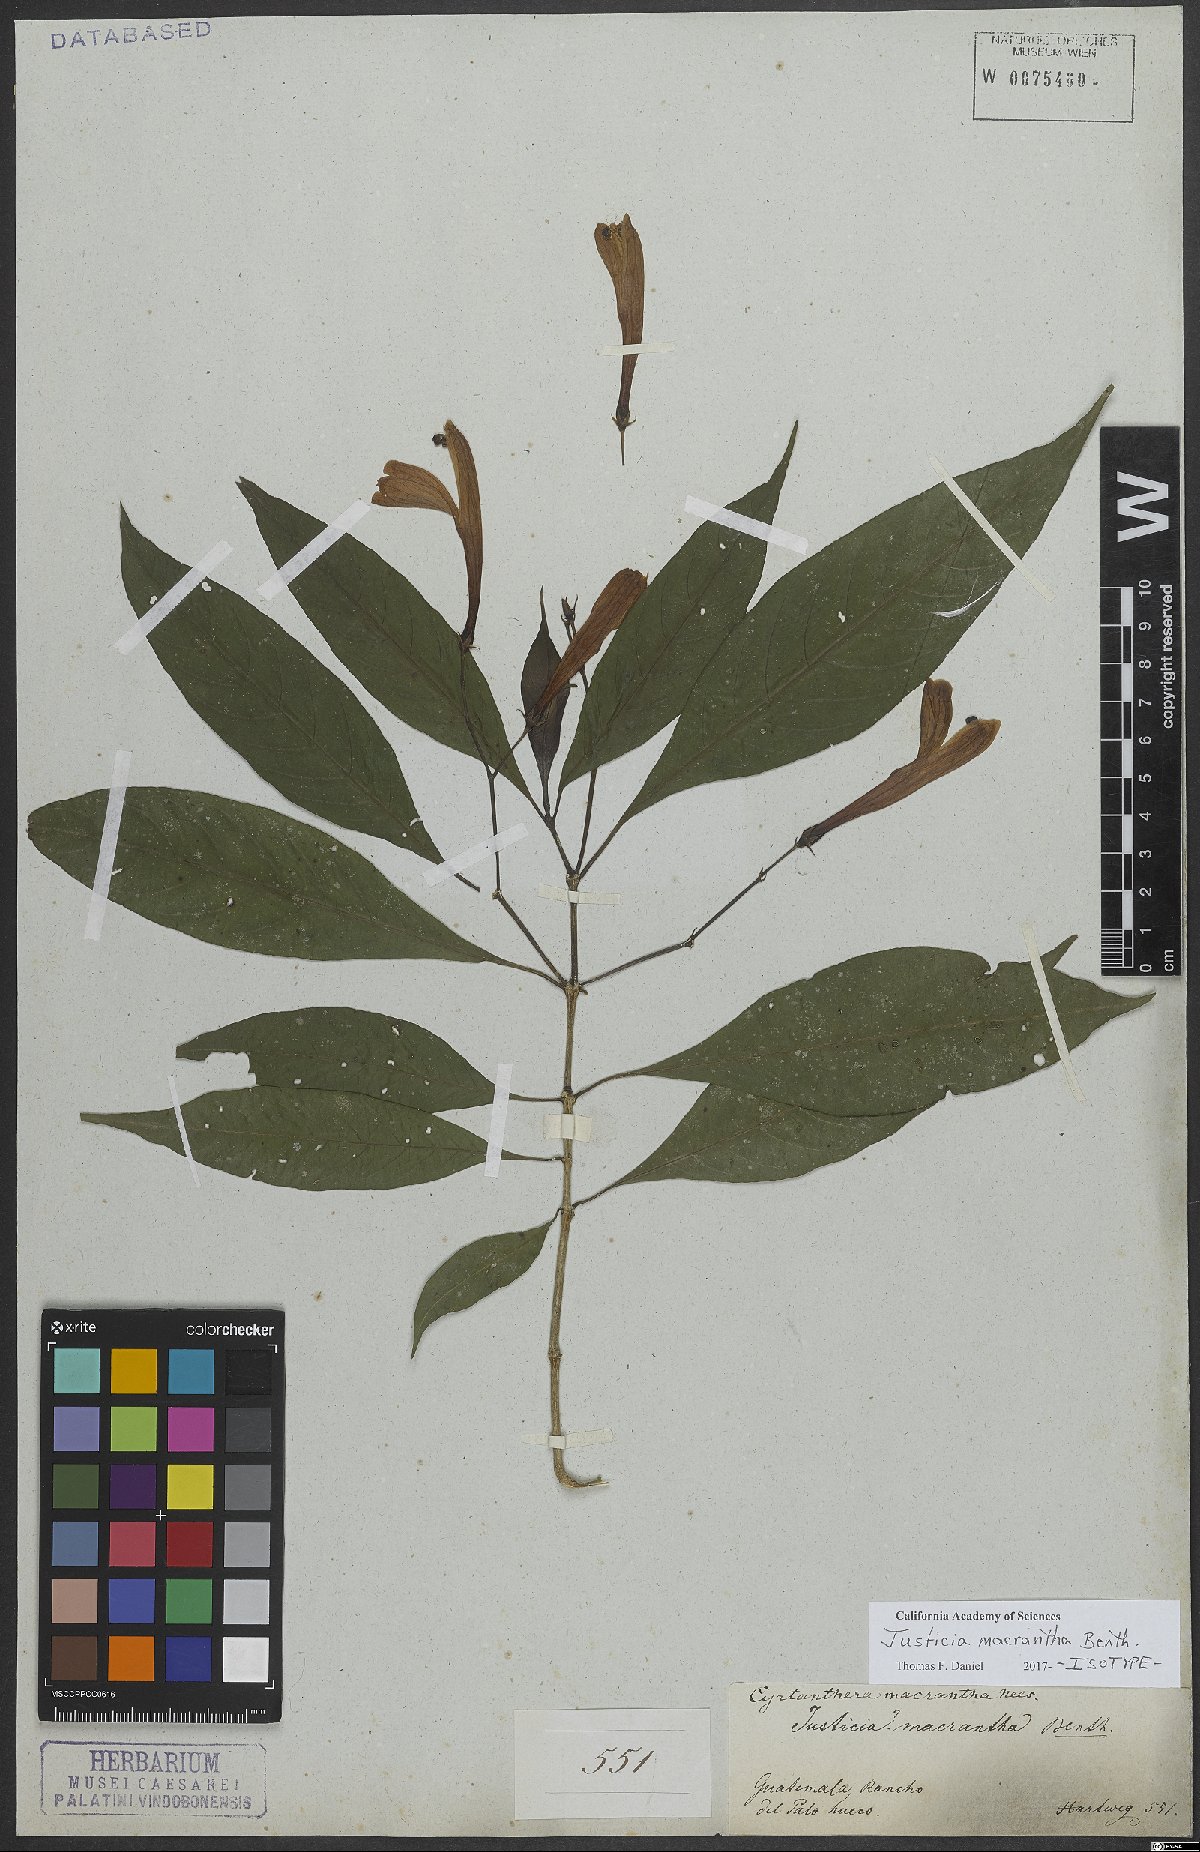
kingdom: Plantae
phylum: Tracheophyta
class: Magnoliopsida
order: Lamiales
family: Acanthaceae
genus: Justicia
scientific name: Justicia macrantha
